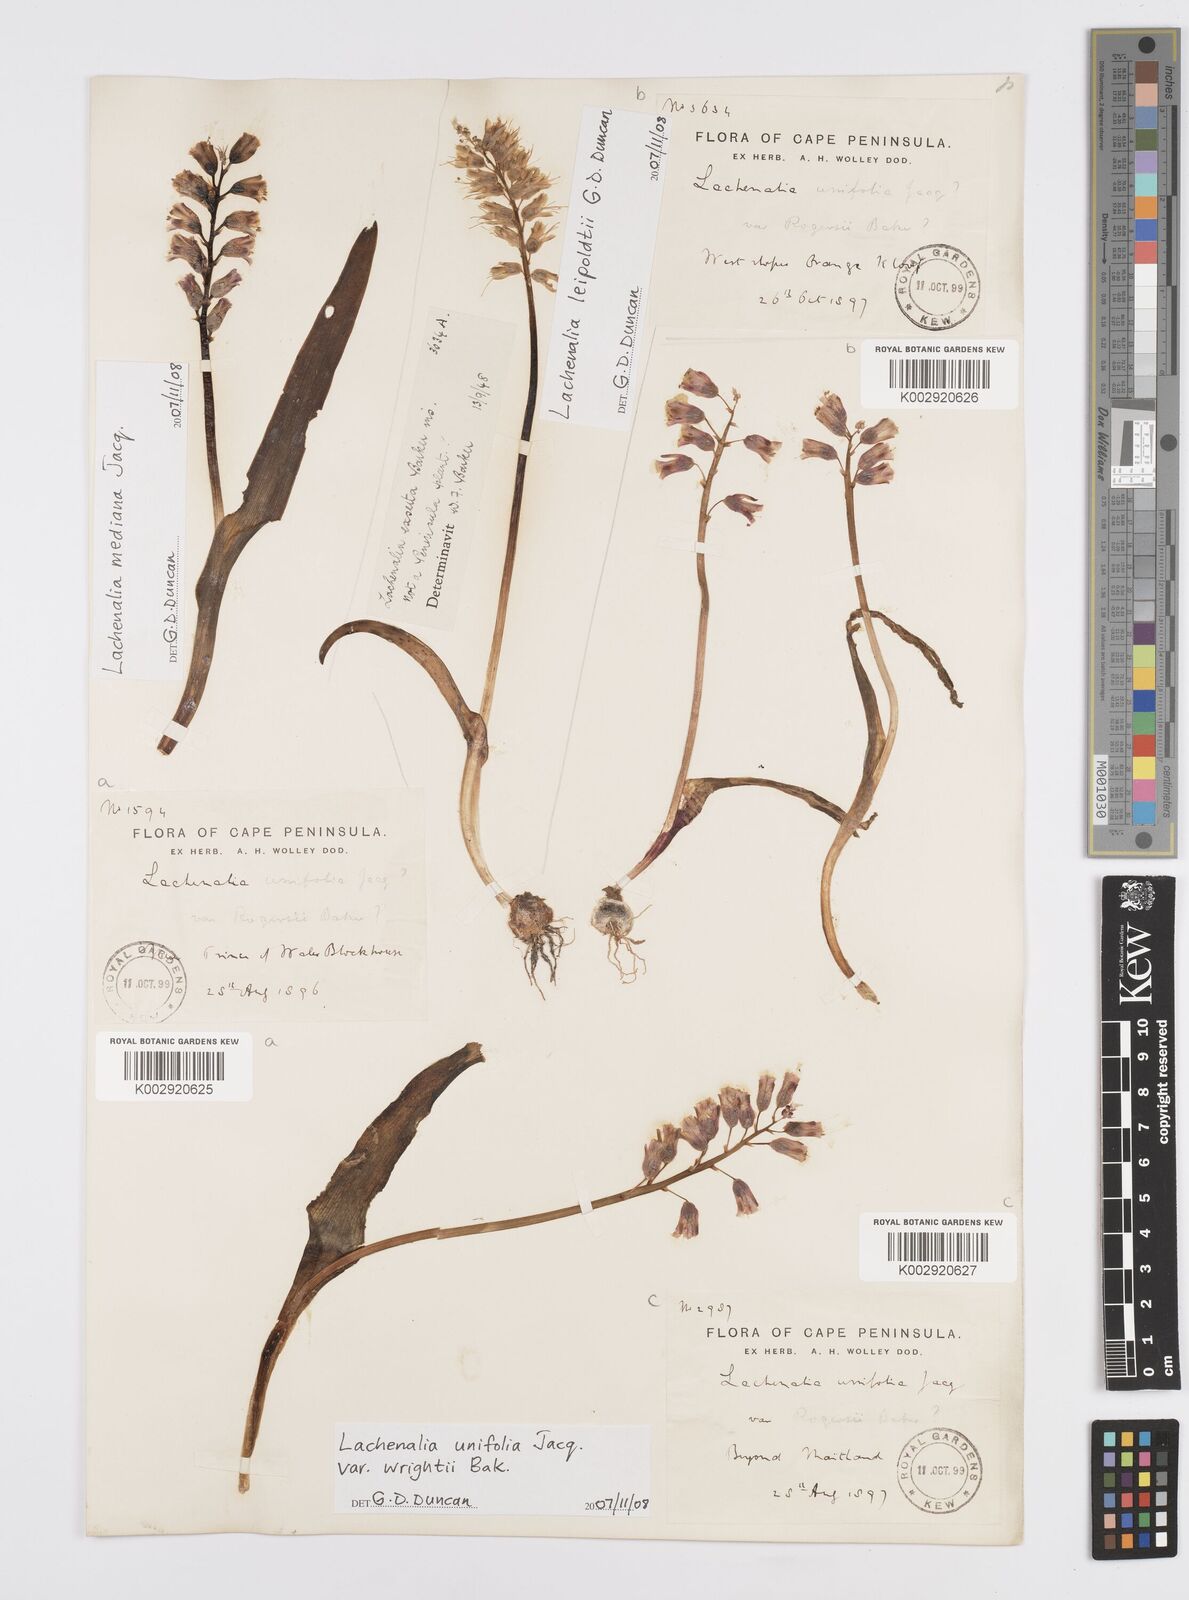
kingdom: Plantae
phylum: Tracheophyta
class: Liliopsida
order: Asparagales
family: Asparagaceae
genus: Lachenalia
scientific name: Lachenalia unifolia
